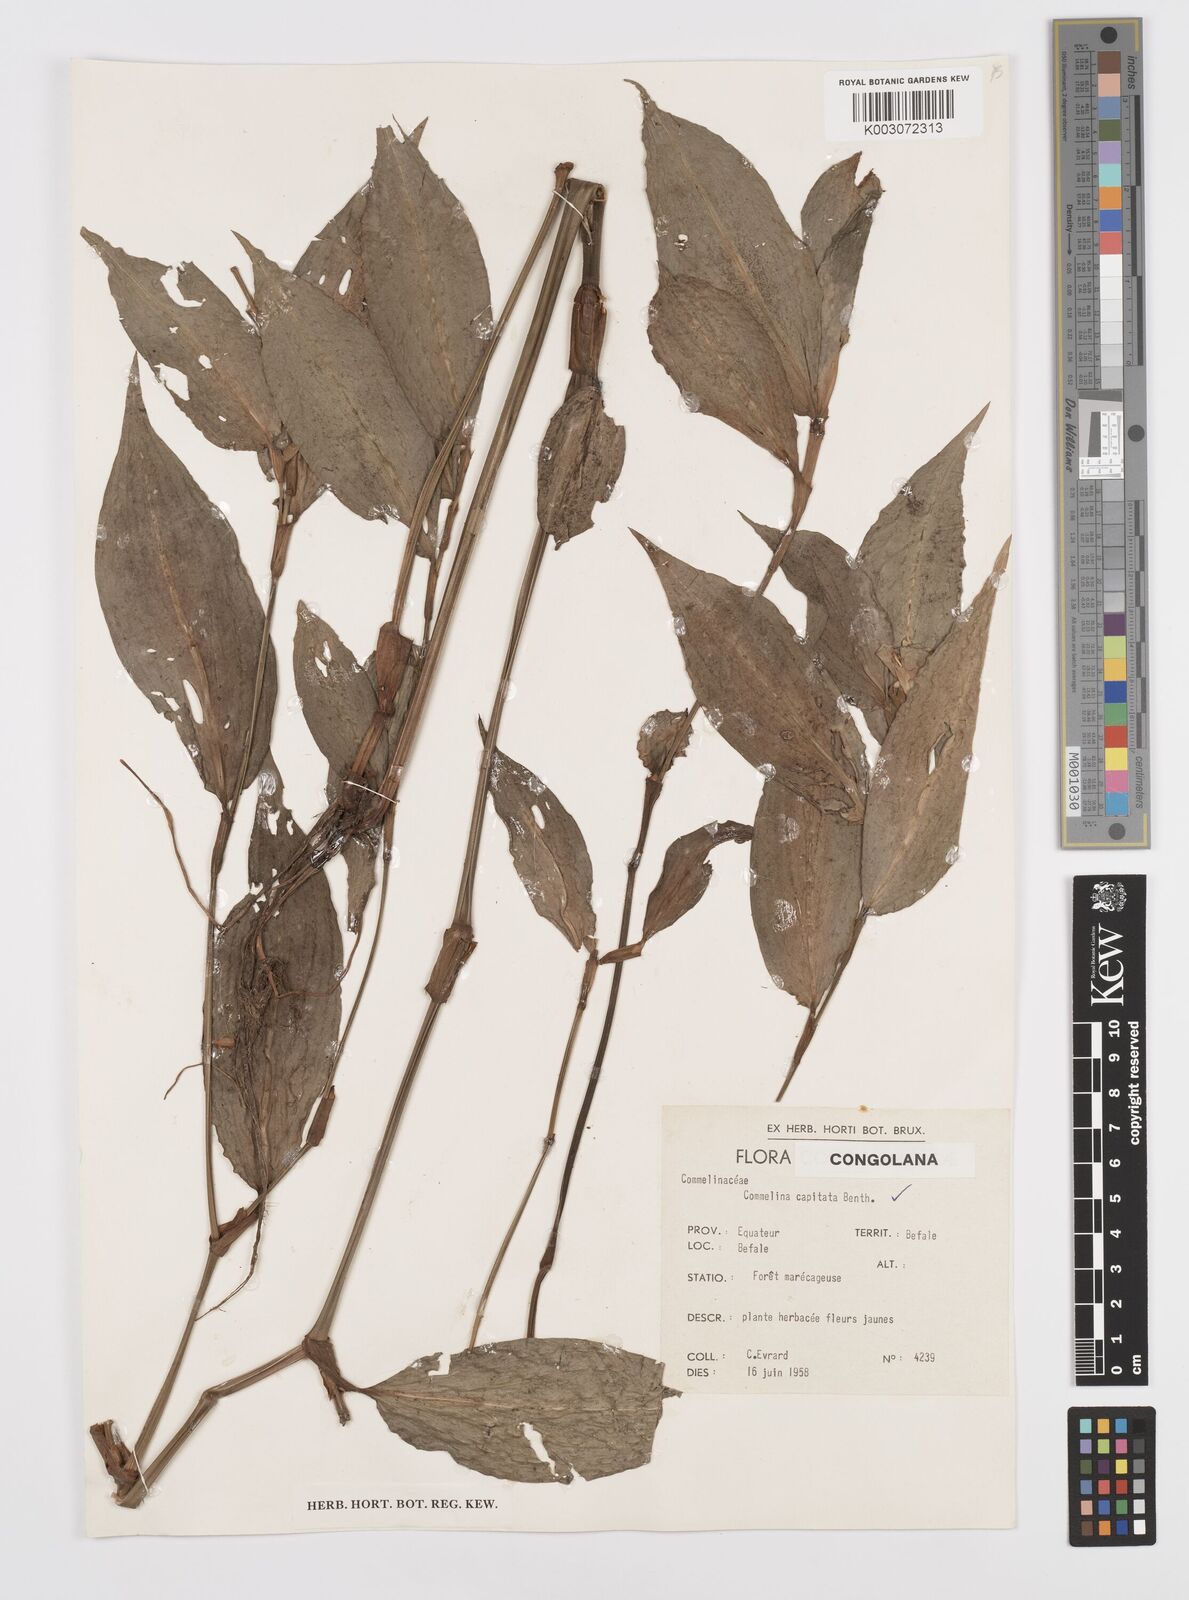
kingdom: Plantae
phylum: Tracheophyta
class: Liliopsida
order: Commelinales
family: Commelinaceae
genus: Commelina
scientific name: Commelina capitata
